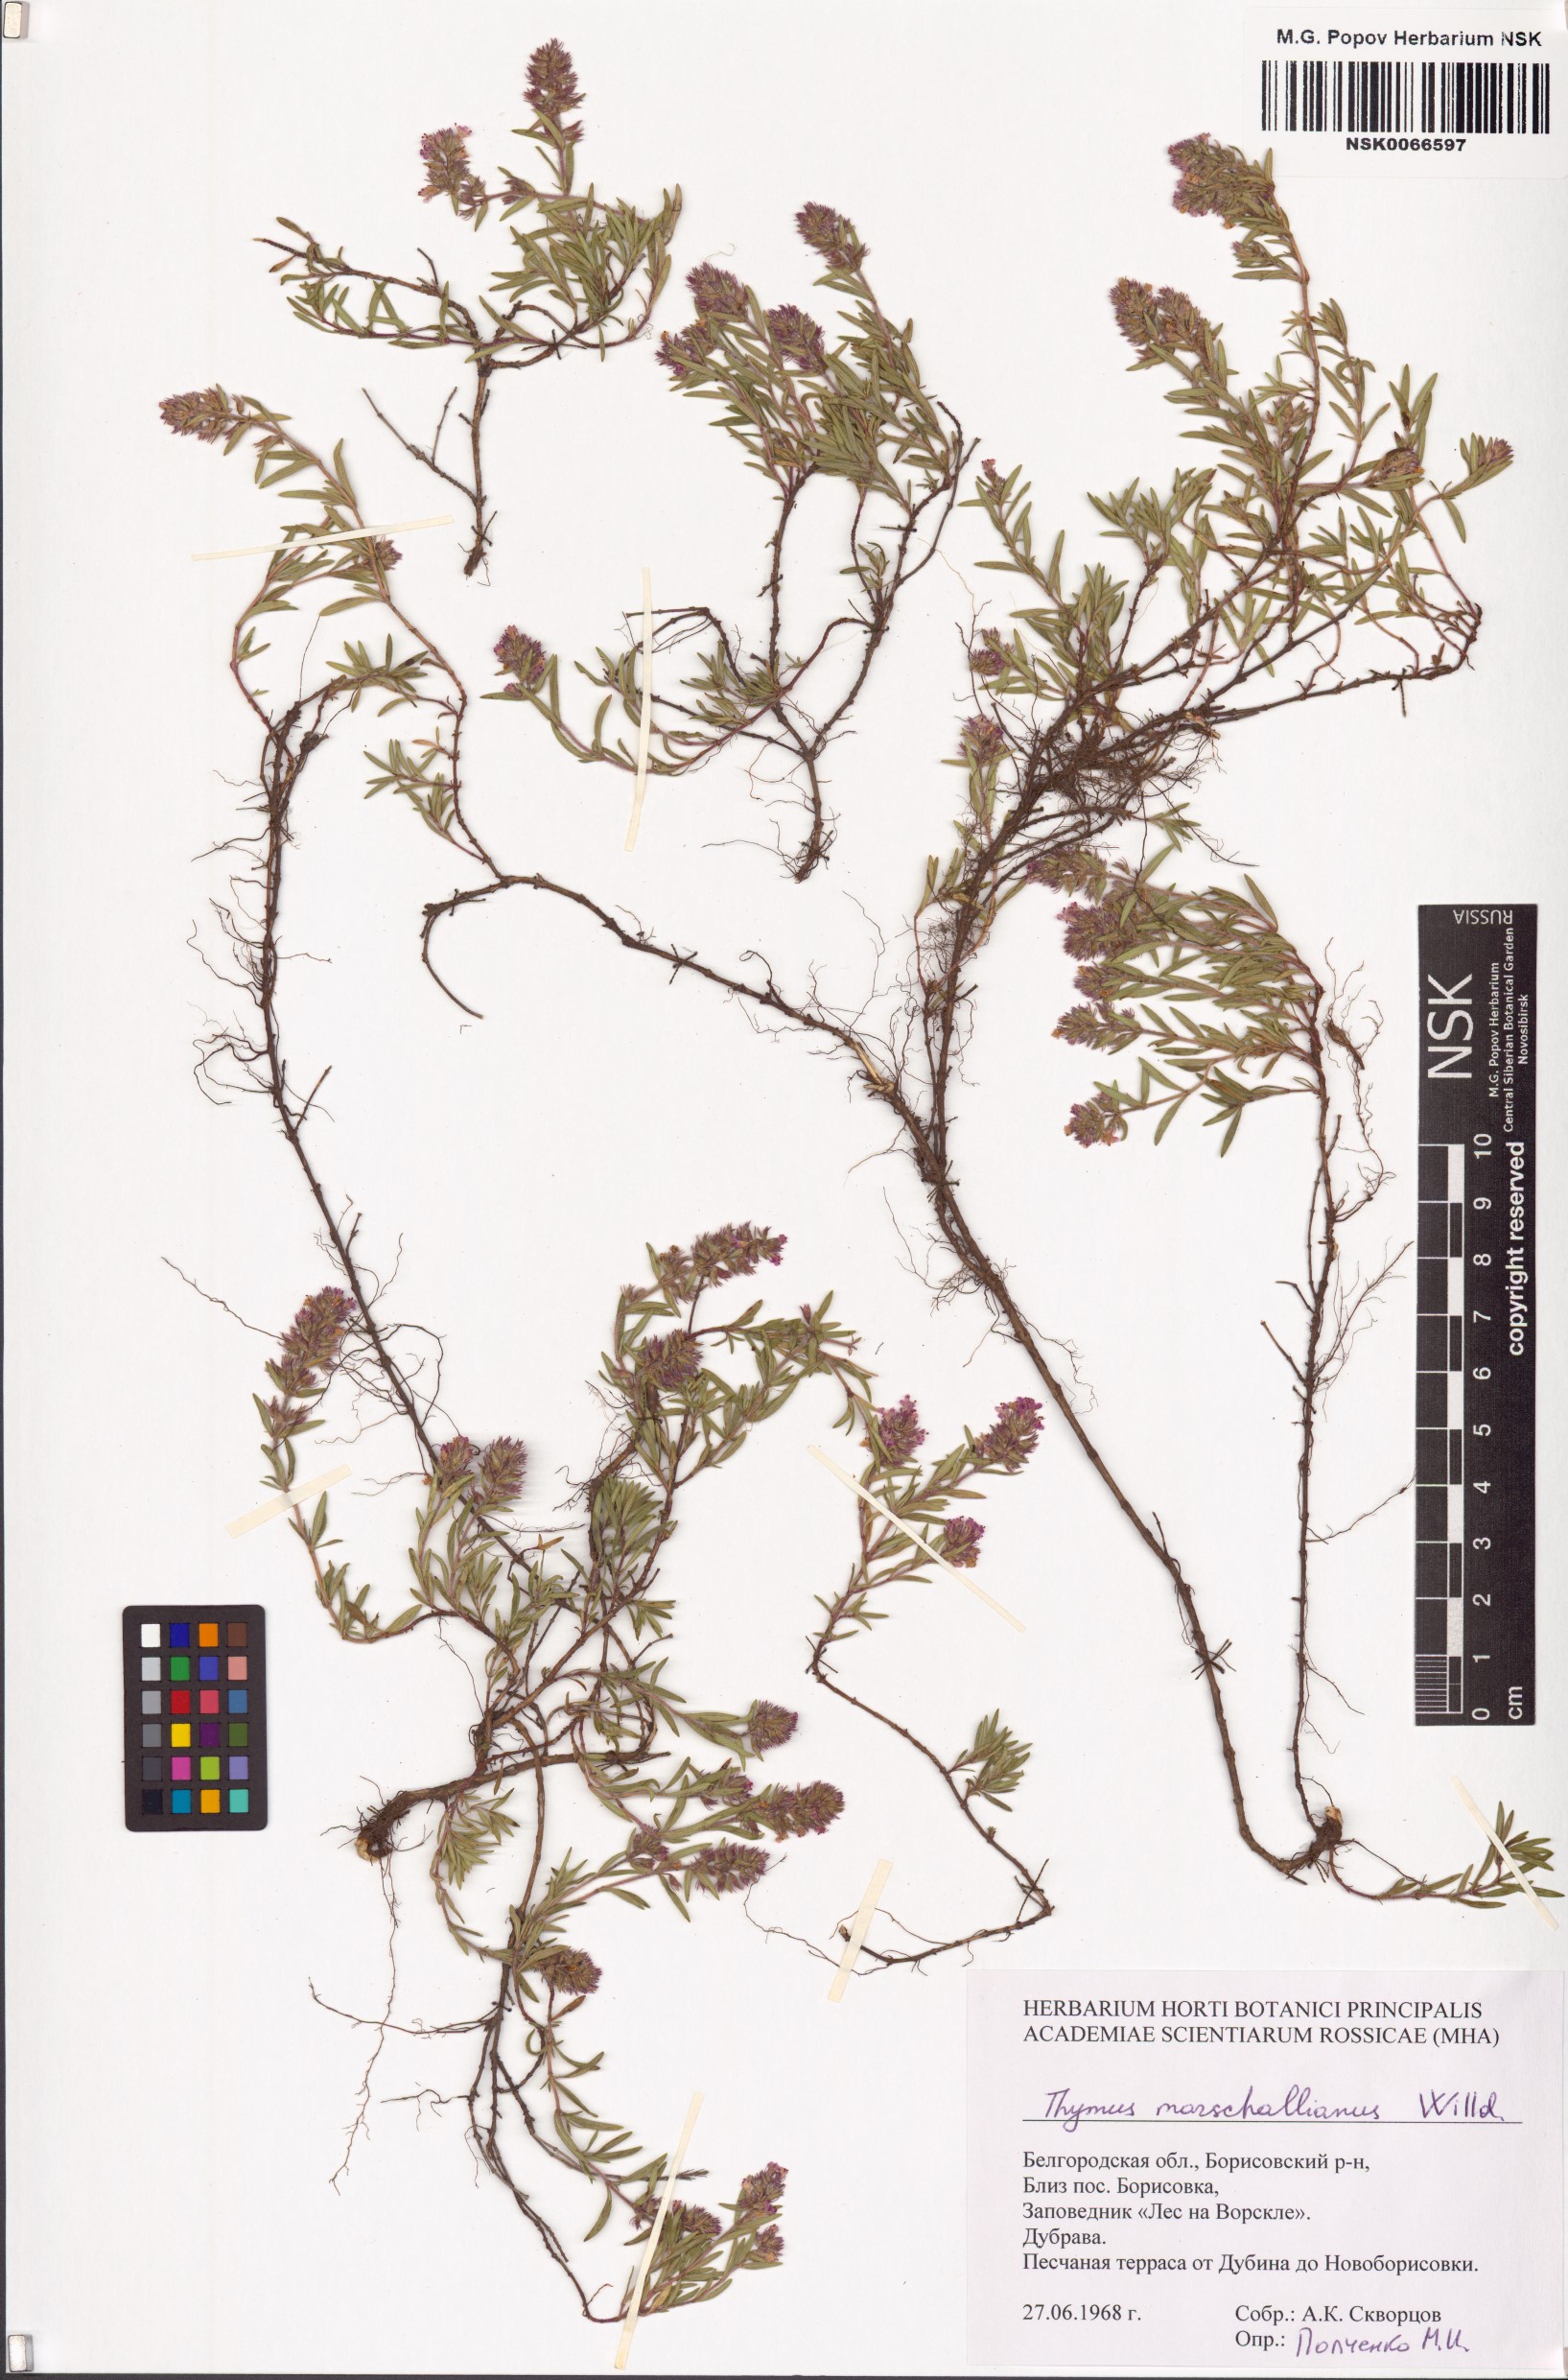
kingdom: Plantae
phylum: Tracheophyta
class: Magnoliopsida
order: Lamiales
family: Lamiaceae
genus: Thymus
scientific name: Thymus pannonicus
